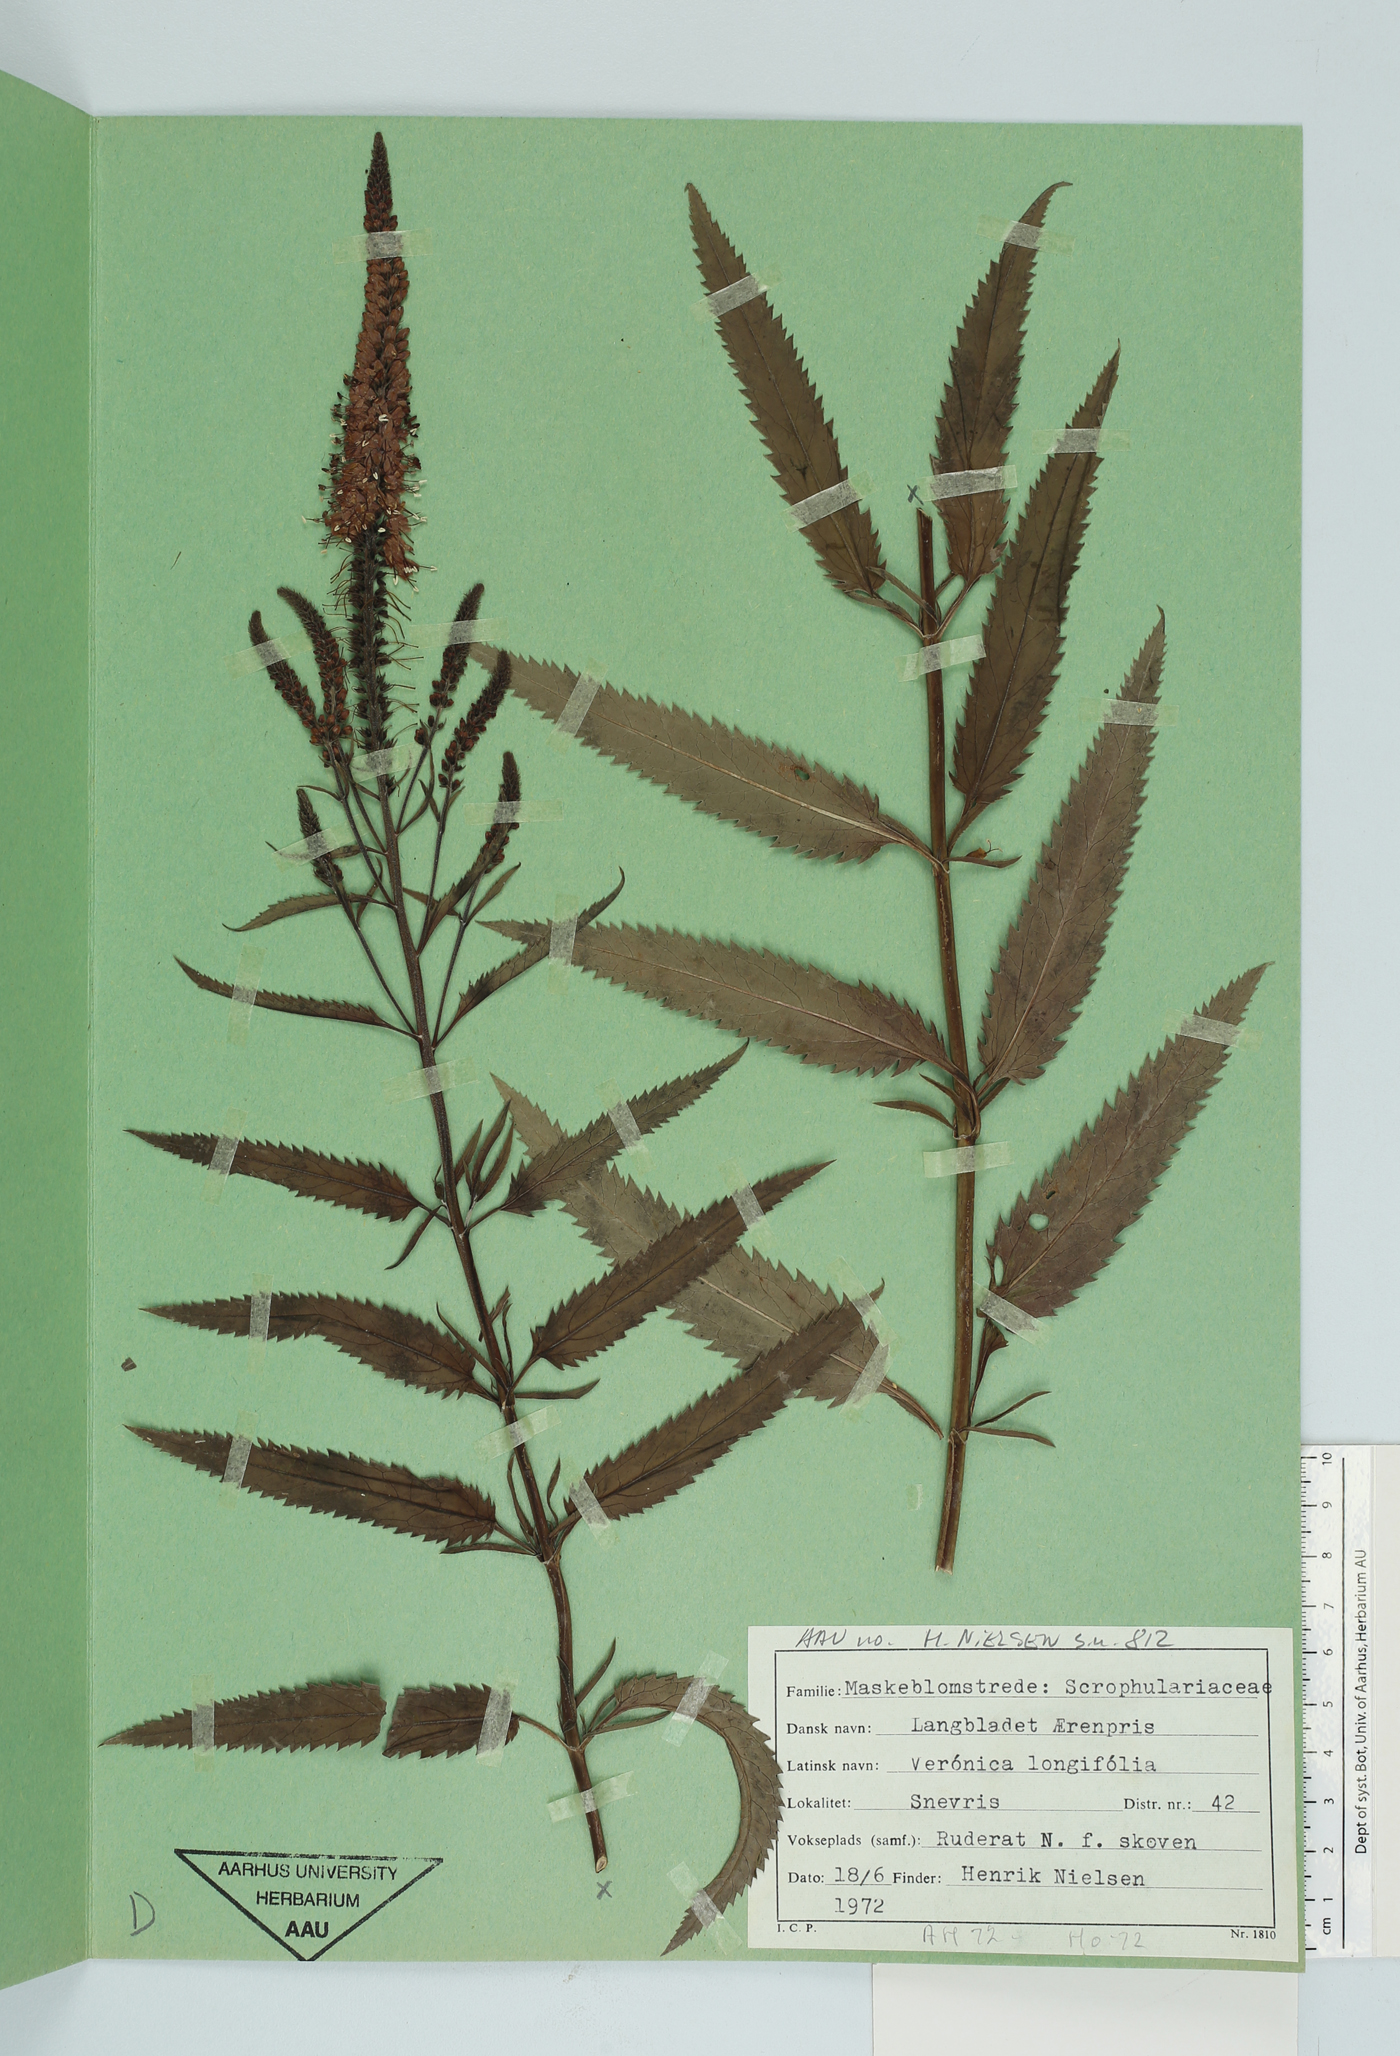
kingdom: Plantae
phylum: Tracheophyta
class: Magnoliopsida
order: Lamiales
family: Plantaginaceae
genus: Veronica
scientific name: Veronica longifolia
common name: Garden speedwell
